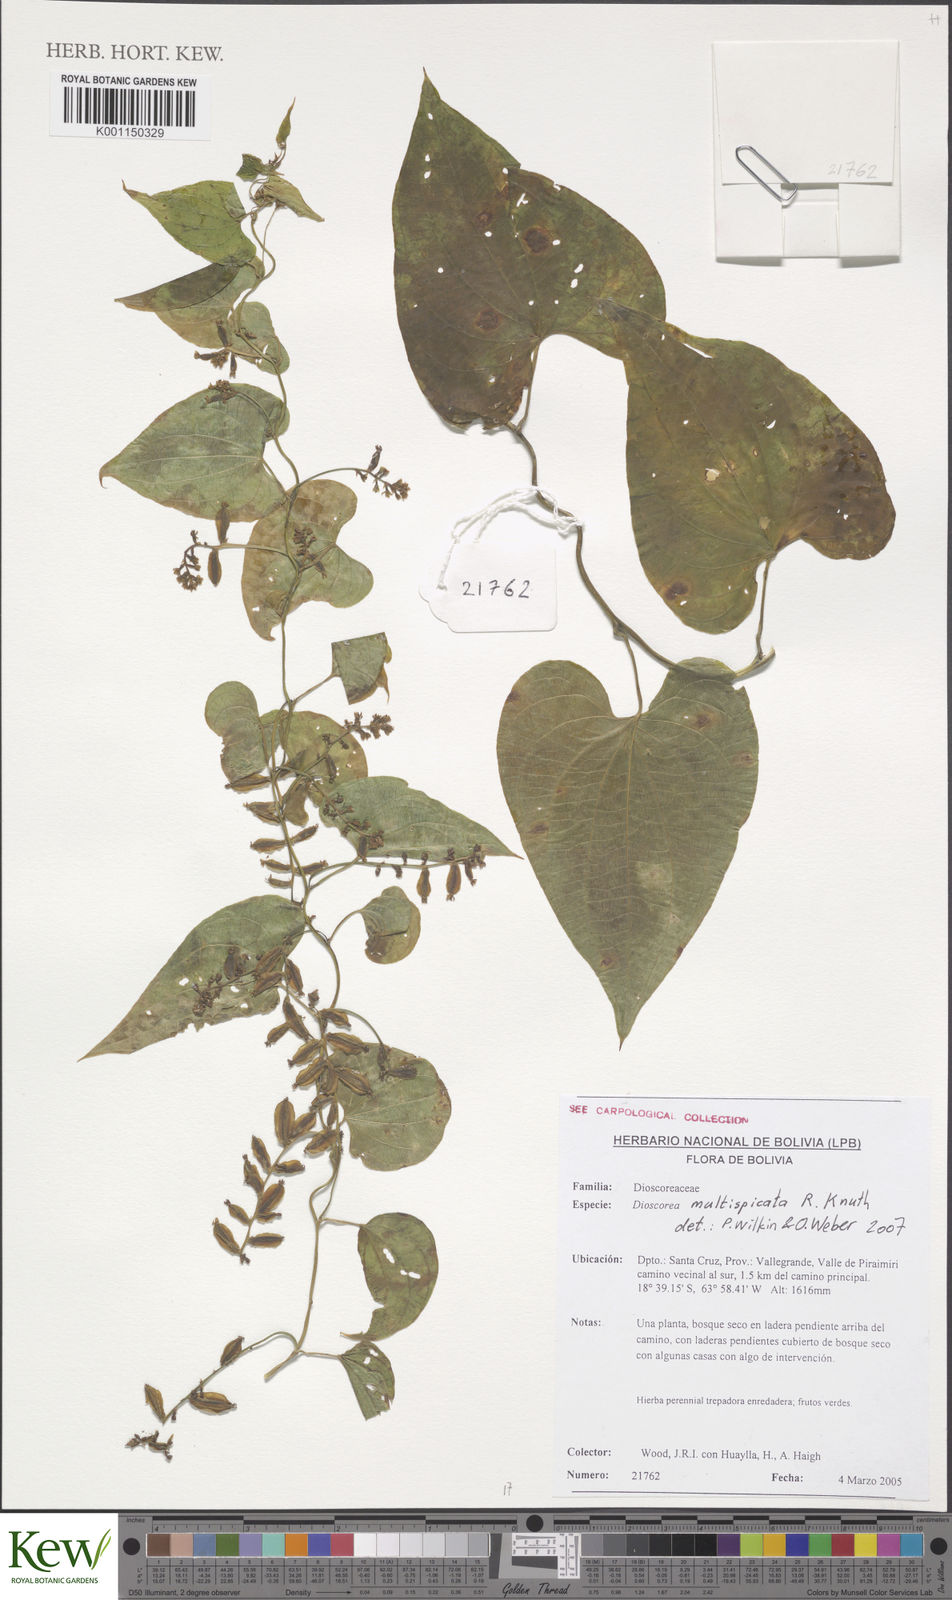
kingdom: Plantae
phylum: Tracheophyta
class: Liliopsida
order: Dioscoreales
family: Dioscoreaceae
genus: Dioscorea
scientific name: Dioscorea multispicata
